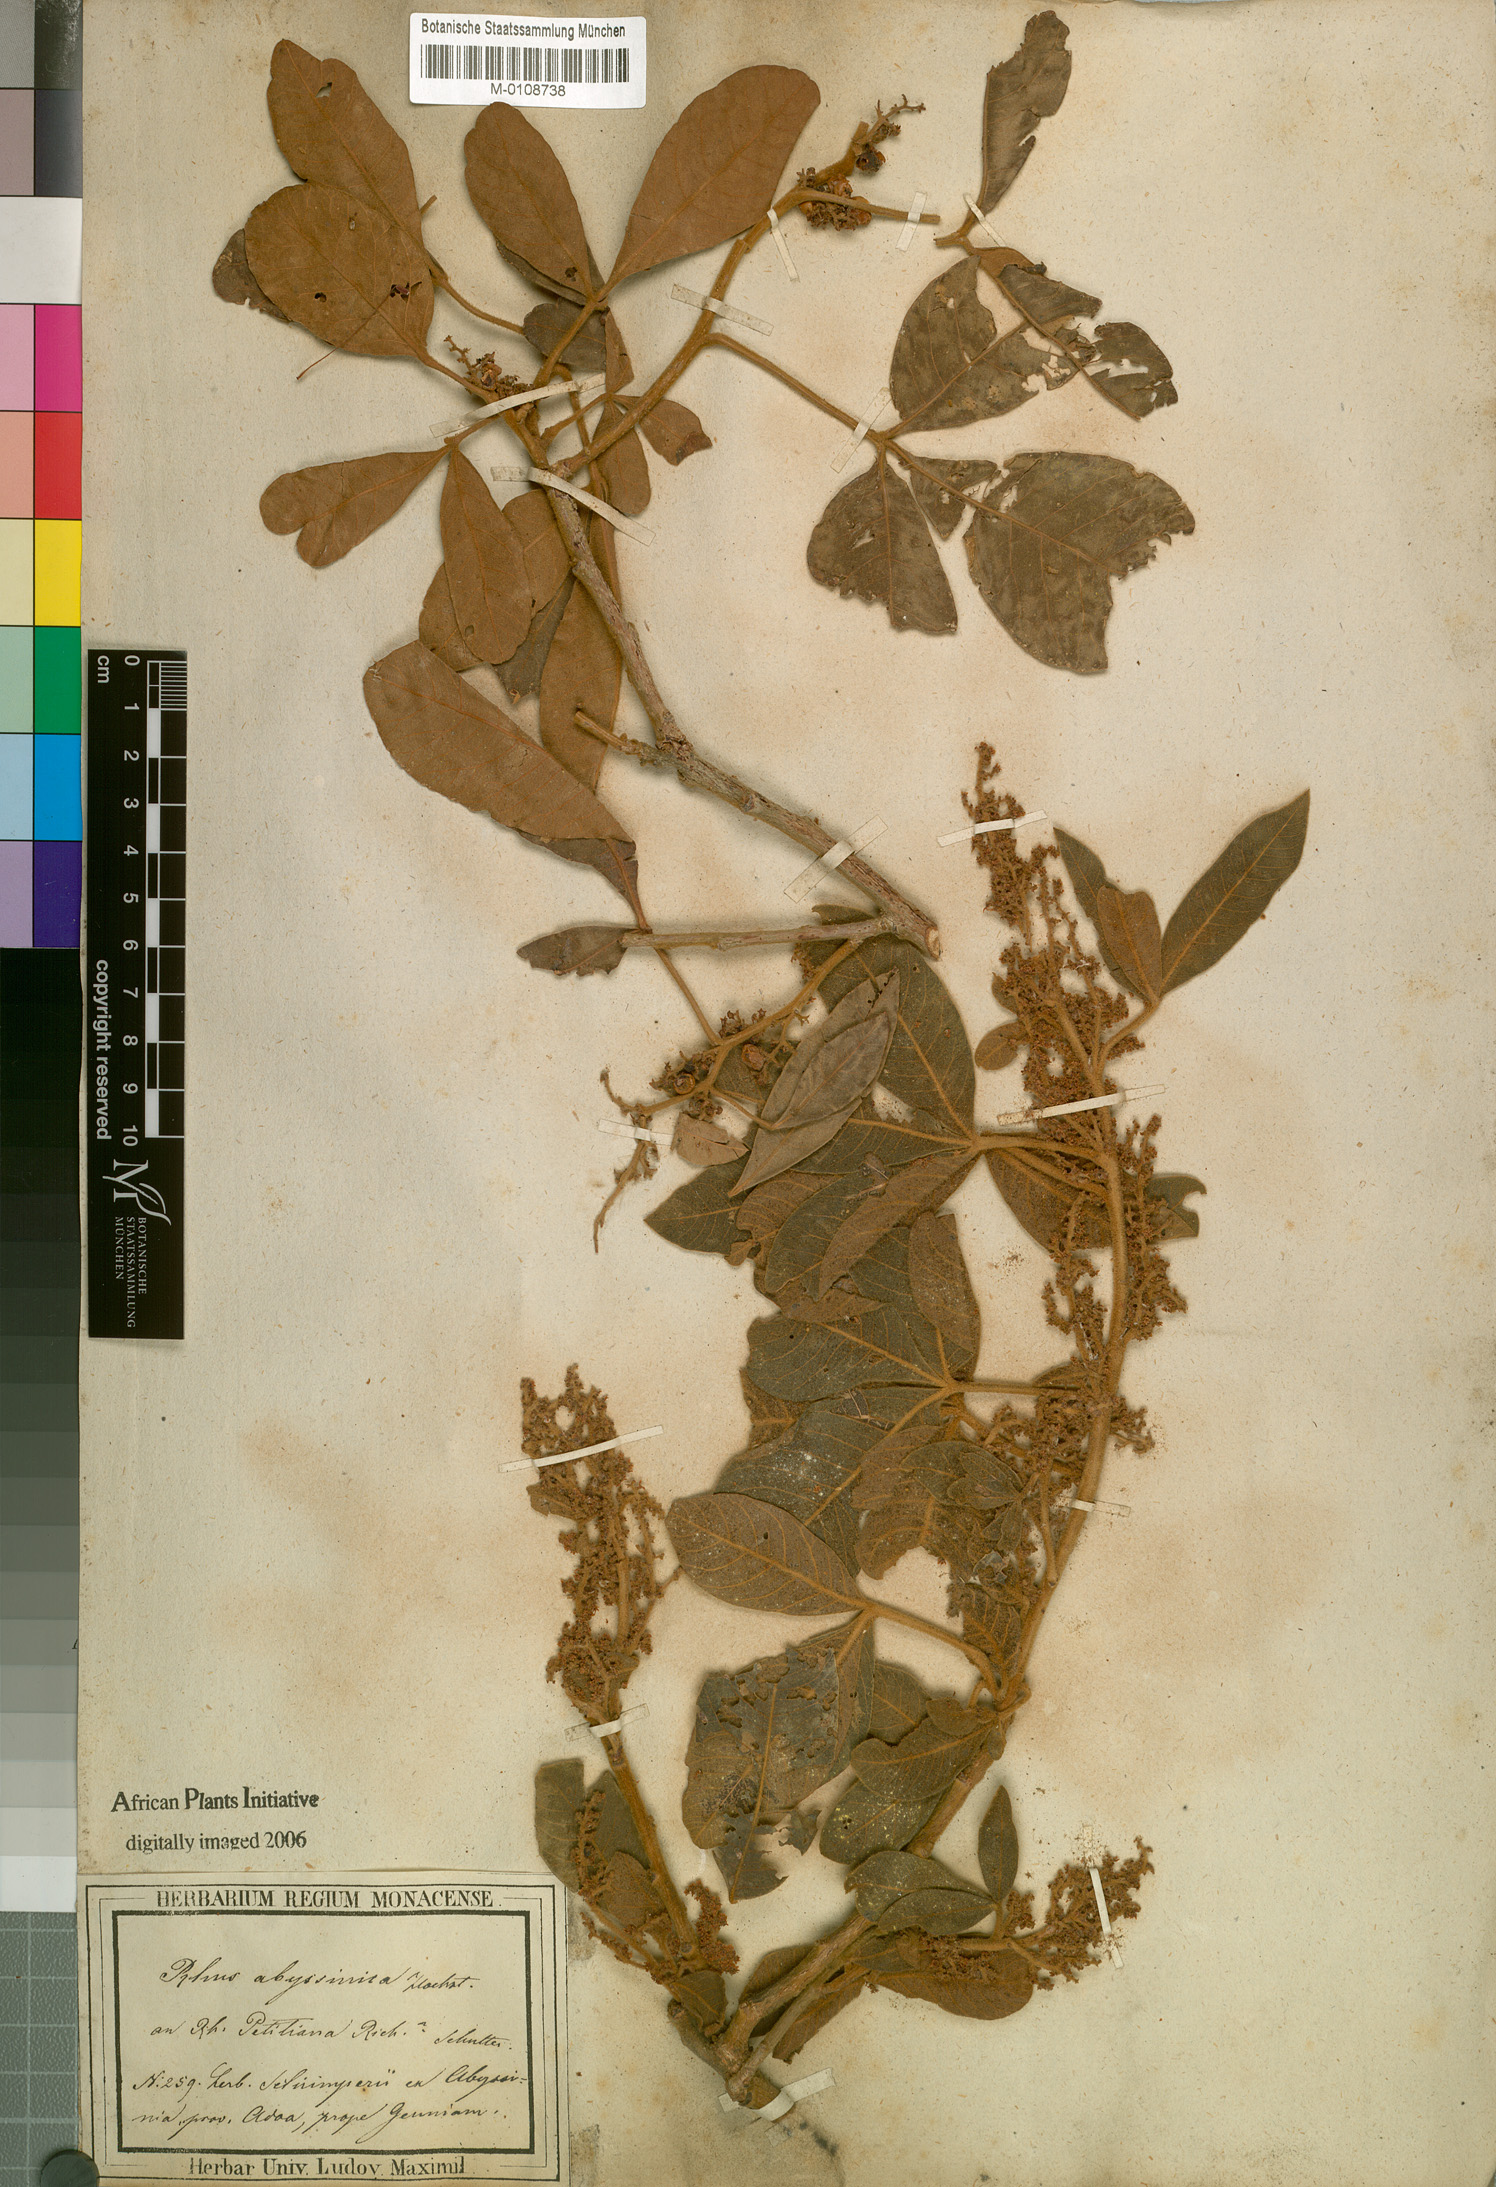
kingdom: Plantae
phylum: Tracheophyta
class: Magnoliopsida
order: Sapindales
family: Anacardiaceae
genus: Searsia
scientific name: Searsia glutinosa
